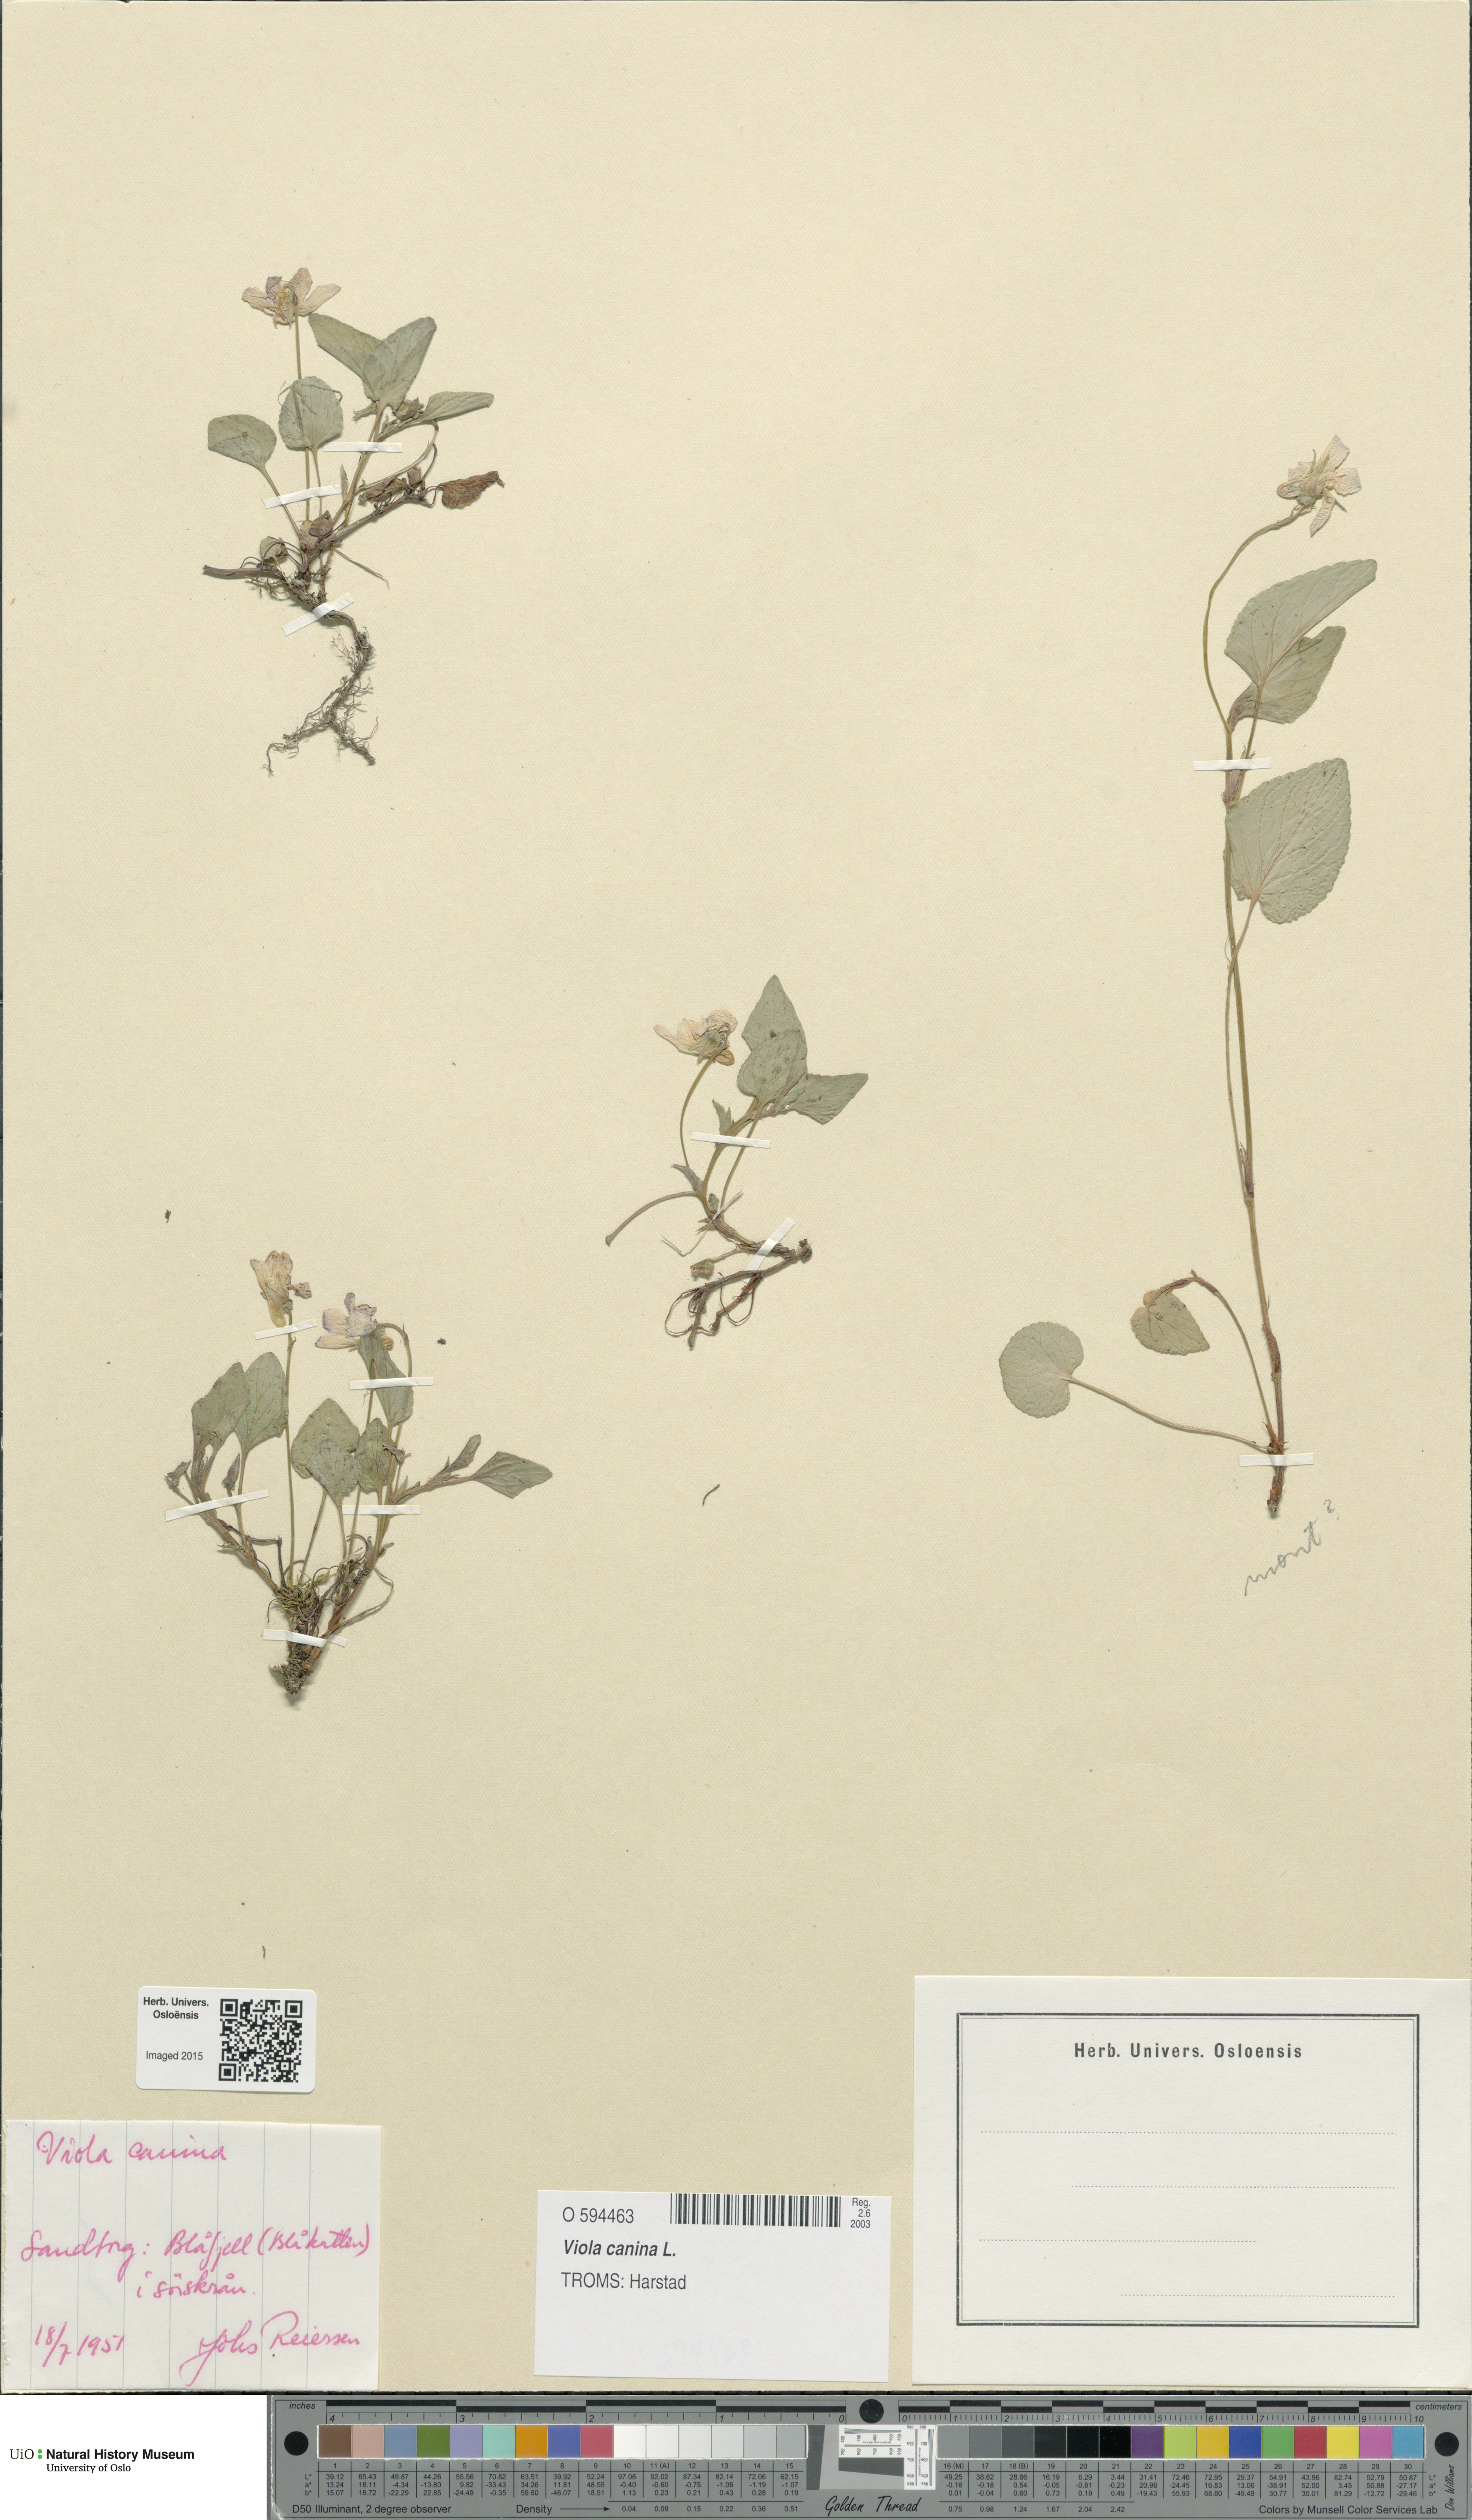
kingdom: Plantae
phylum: Tracheophyta
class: Magnoliopsida
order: Malpighiales
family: Violaceae
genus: Viola
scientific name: Viola canina
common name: Heath dog-violet
